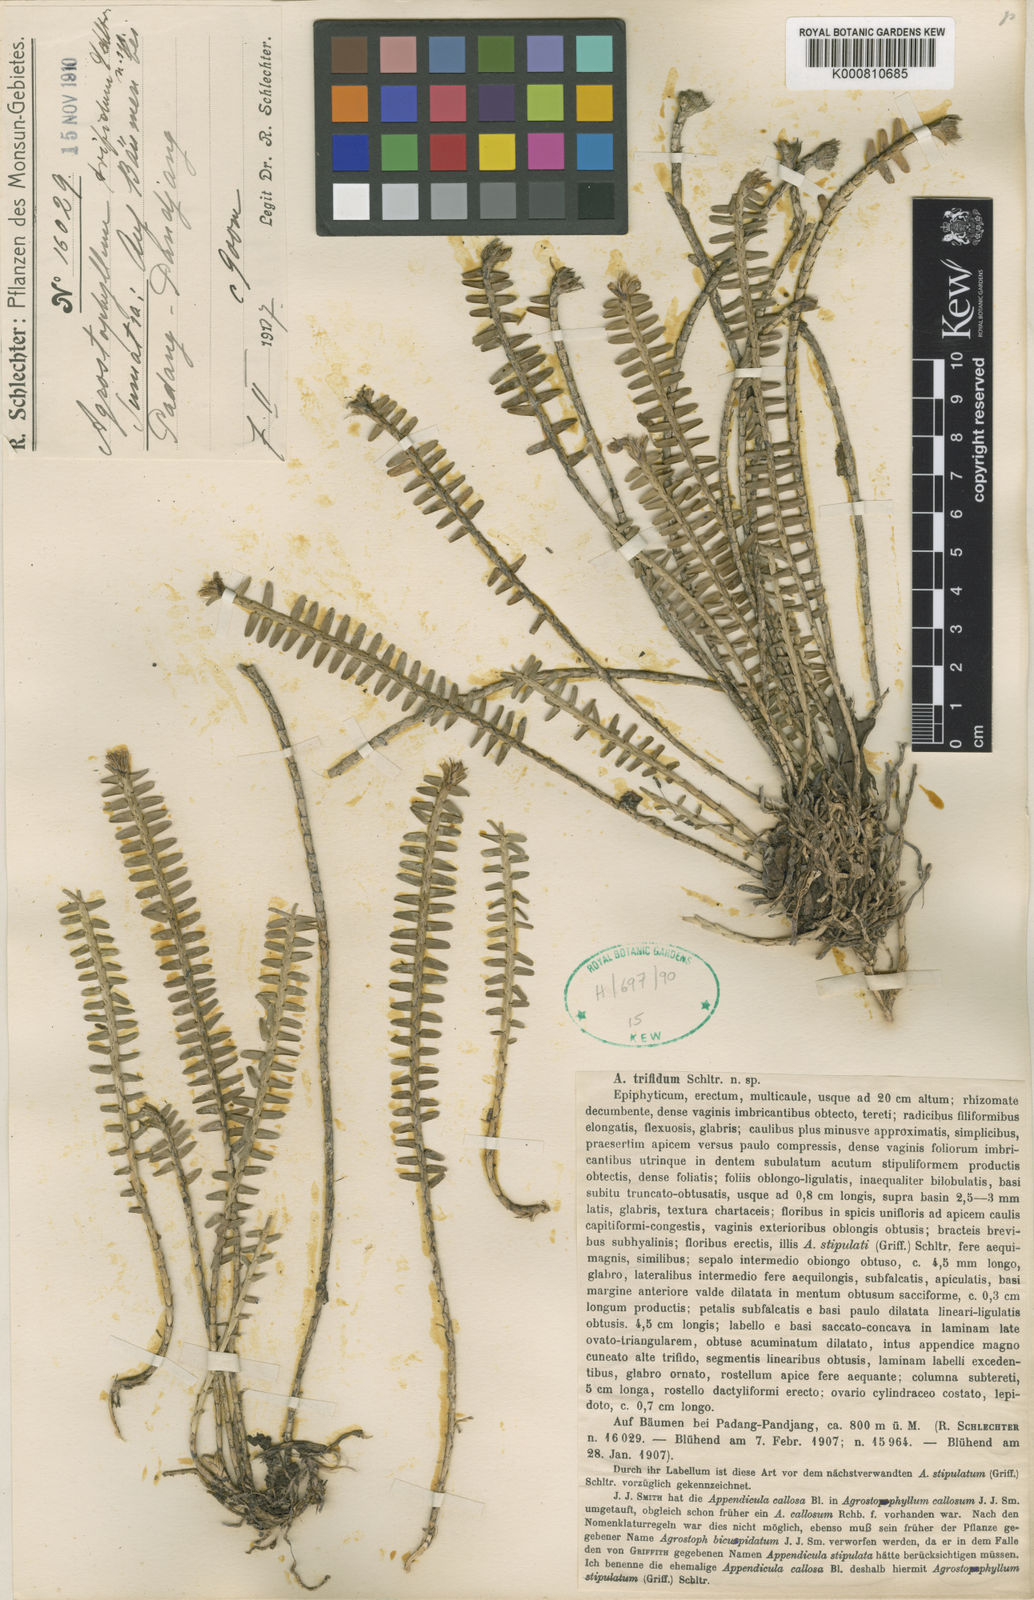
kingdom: Plantae
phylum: Tracheophyta
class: Liliopsida
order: Asparagales
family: Orchidaceae
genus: Agrostophyllum
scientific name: Agrostophyllum trifidum
